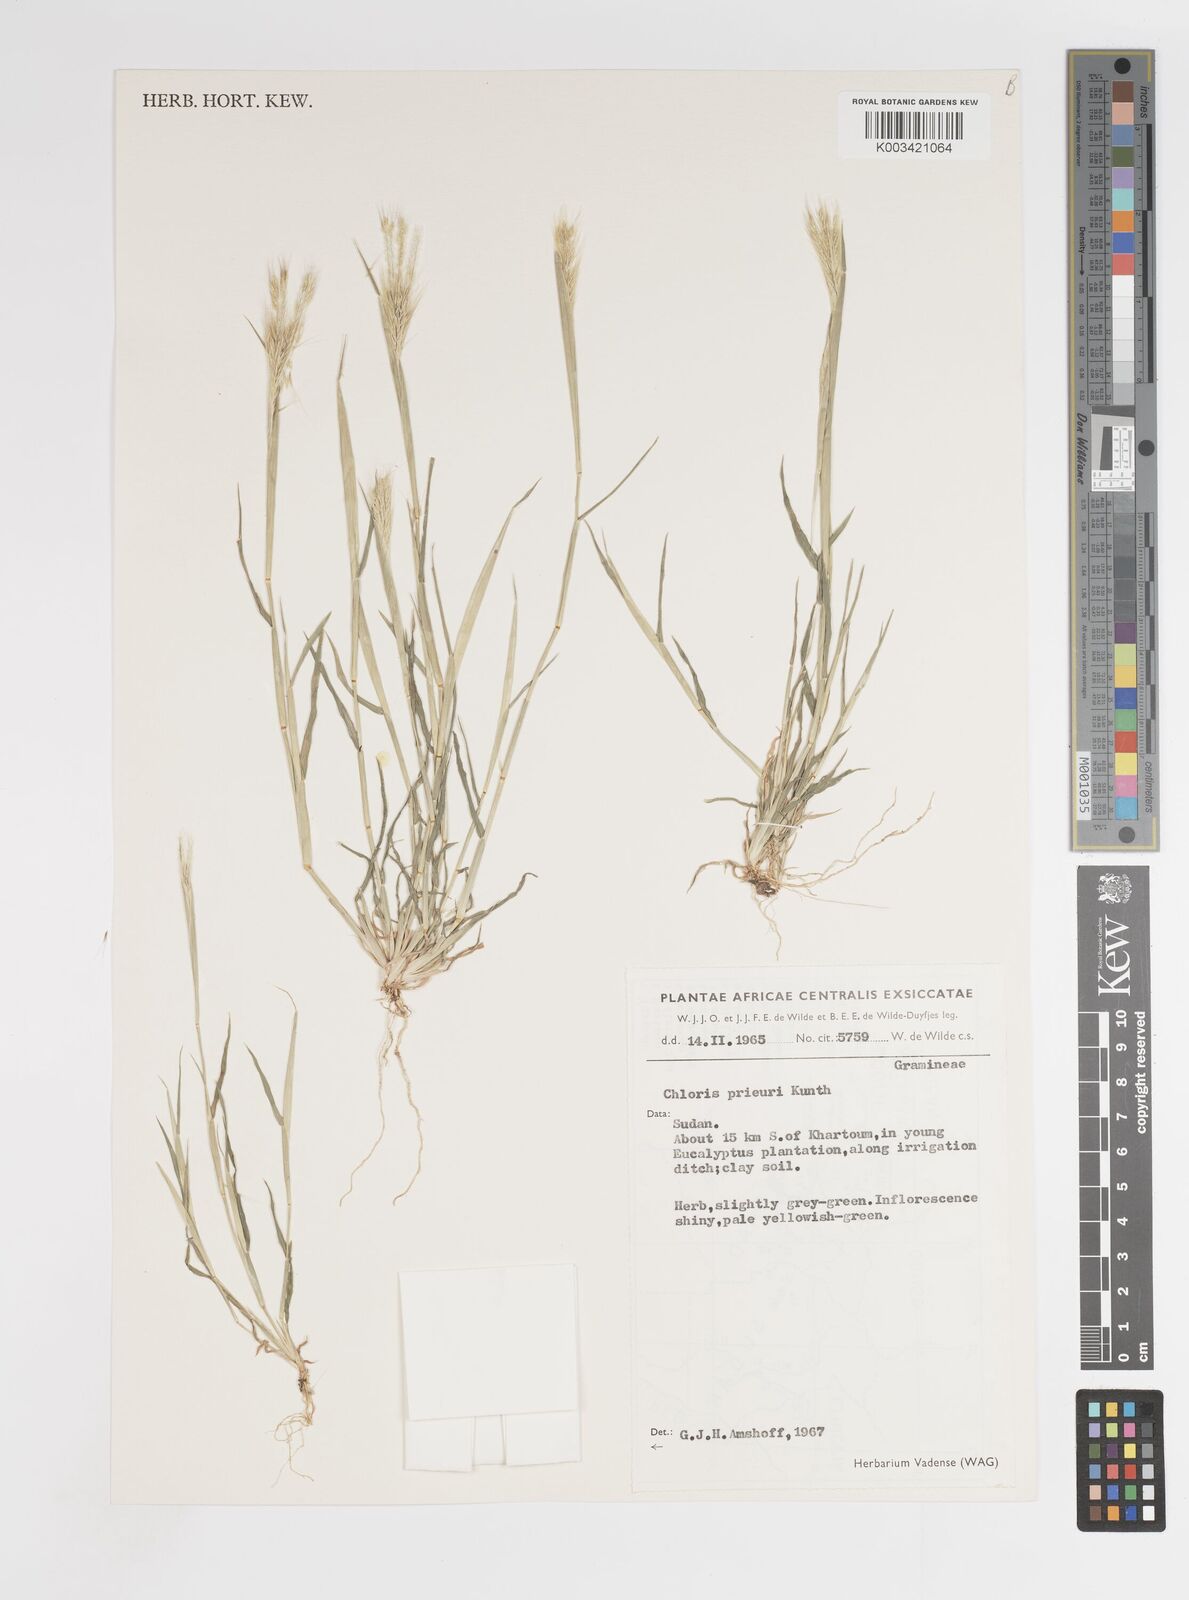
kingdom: Plantae
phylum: Tracheophyta
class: Liliopsida
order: Poales
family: Poaceae
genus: Enteropogon
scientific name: Enteropogon prieurii
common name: Prieur's umbrellagrass
